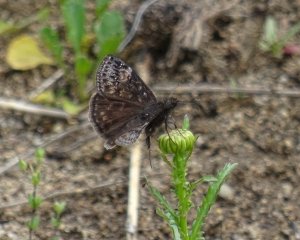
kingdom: Animalia
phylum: Arthropoda
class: Insecta
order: Lepidoptera
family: Hesperiidae
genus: Gesta
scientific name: Gesta
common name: Wild Indigo Duskywing
